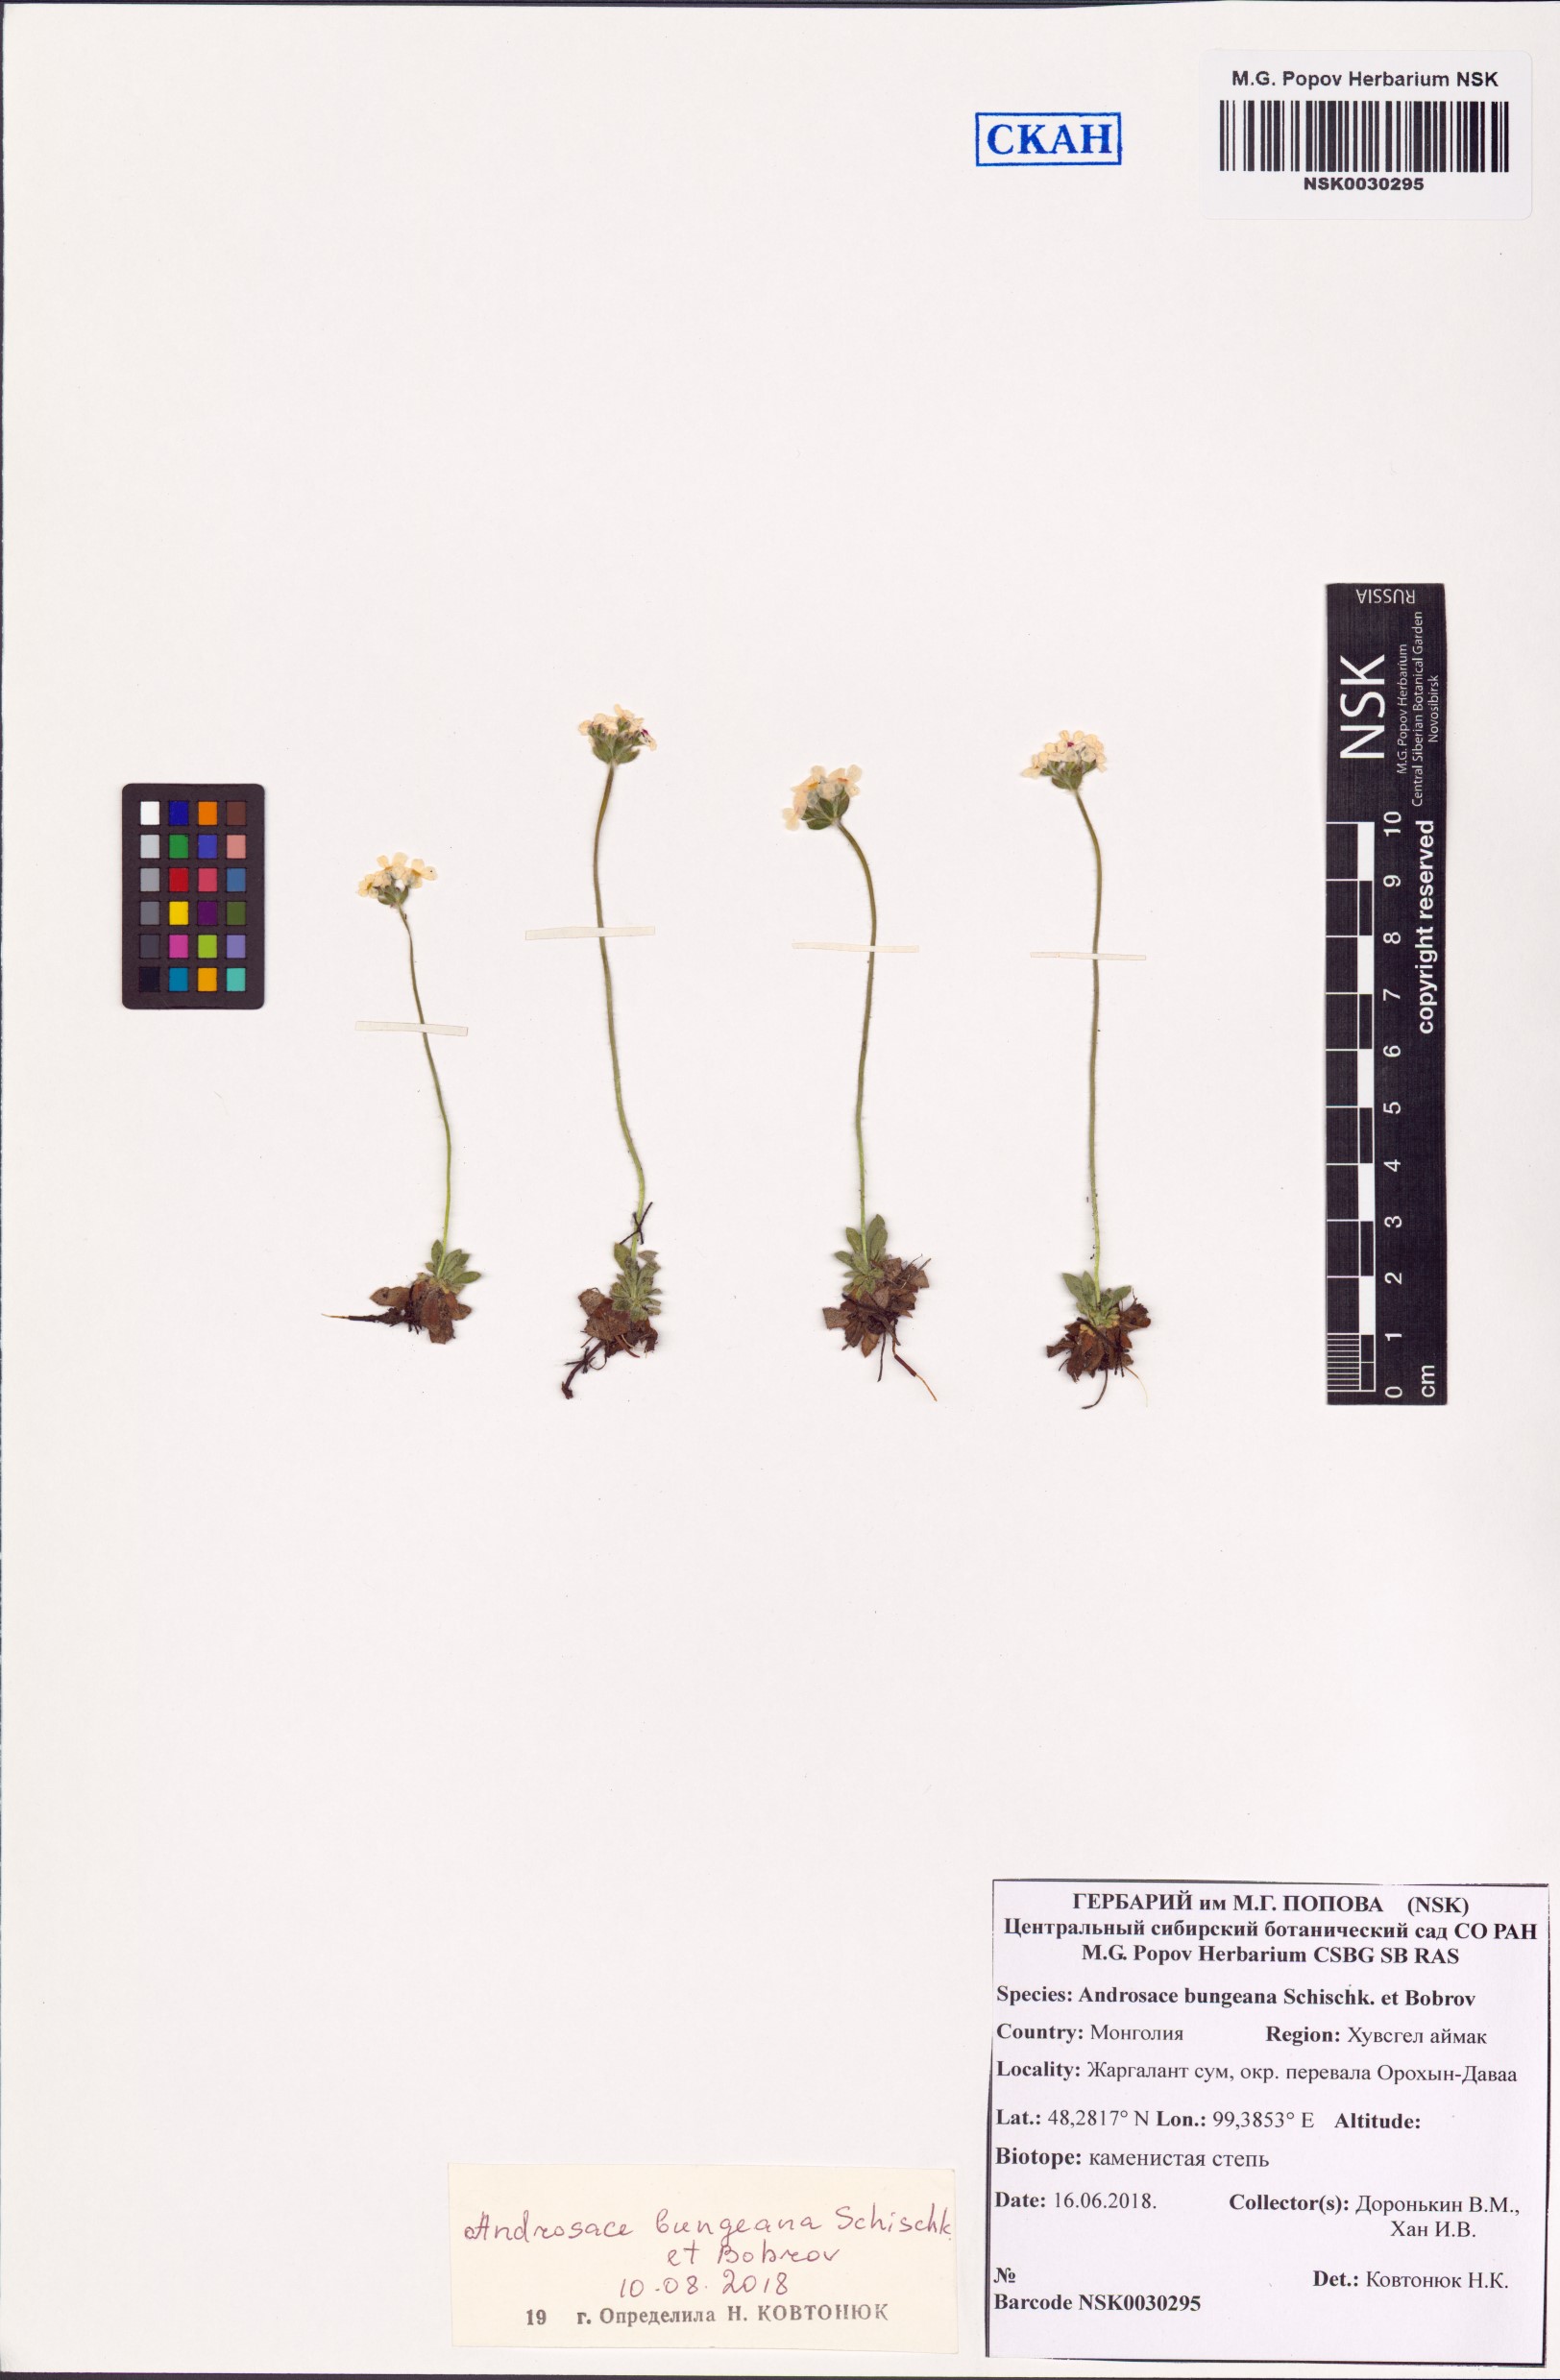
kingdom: Plantae
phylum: Tracheophyta
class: Magnoliopsida
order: Ericales
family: Primulaceae
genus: Androsace
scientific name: Androsace bungeana
